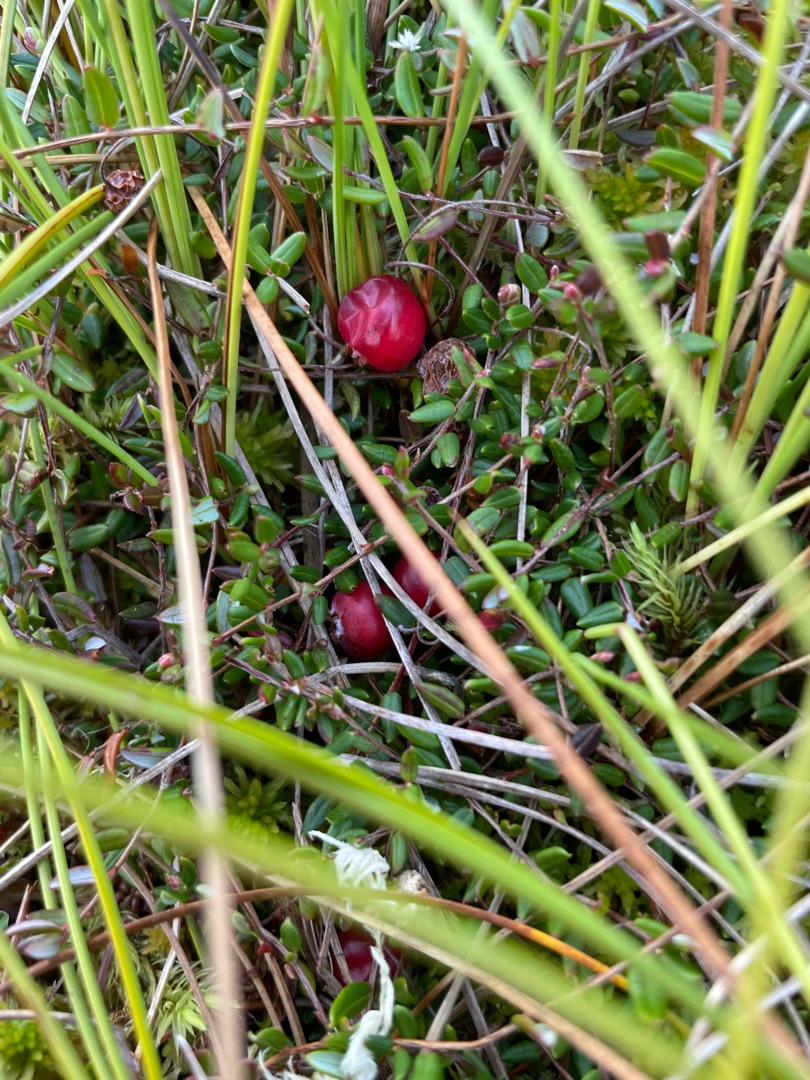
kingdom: Plantae
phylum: Tracheophyta
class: Magnoliopsida
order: Ericales
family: Ericaceae
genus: Vaccinium
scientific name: Vaccinium oxycoccos
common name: Tranebær
